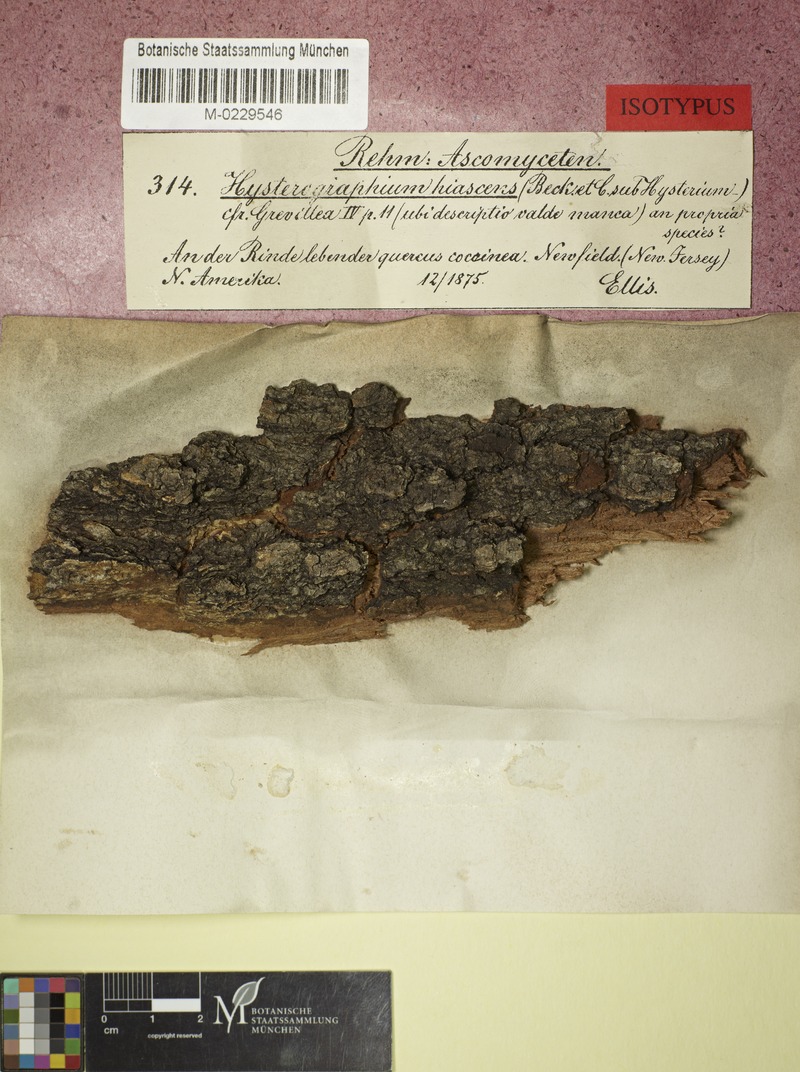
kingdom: Fungi
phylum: Ascomycota
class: Dothideomycetes
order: Hysteriales
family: Hysteriaceae
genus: Gloniopsis
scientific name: Gloniopsis subrugosa
